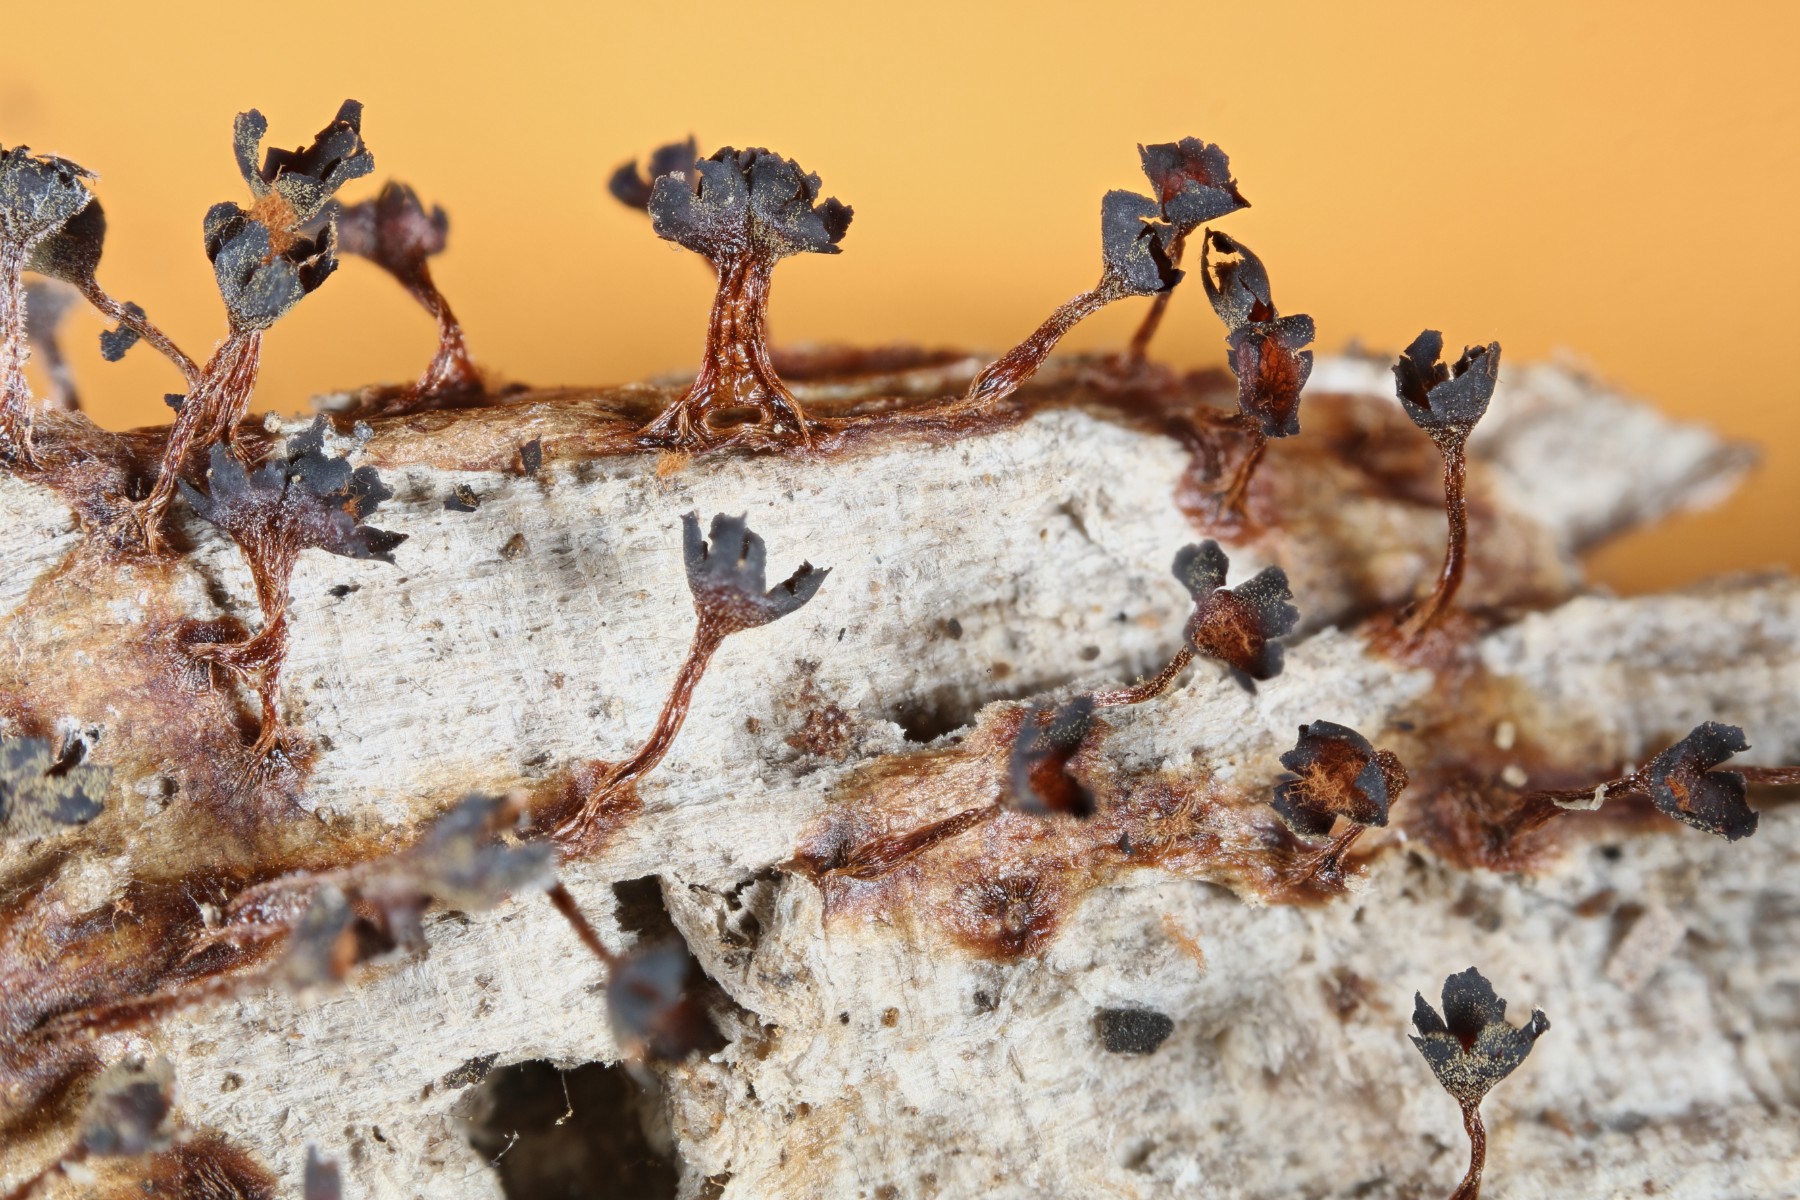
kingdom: Protozoa
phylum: Mycetozoa
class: Myxomycetes
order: Trichiales
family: Trichiaceae
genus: Metatrichia
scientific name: Metatrichia floriformis
